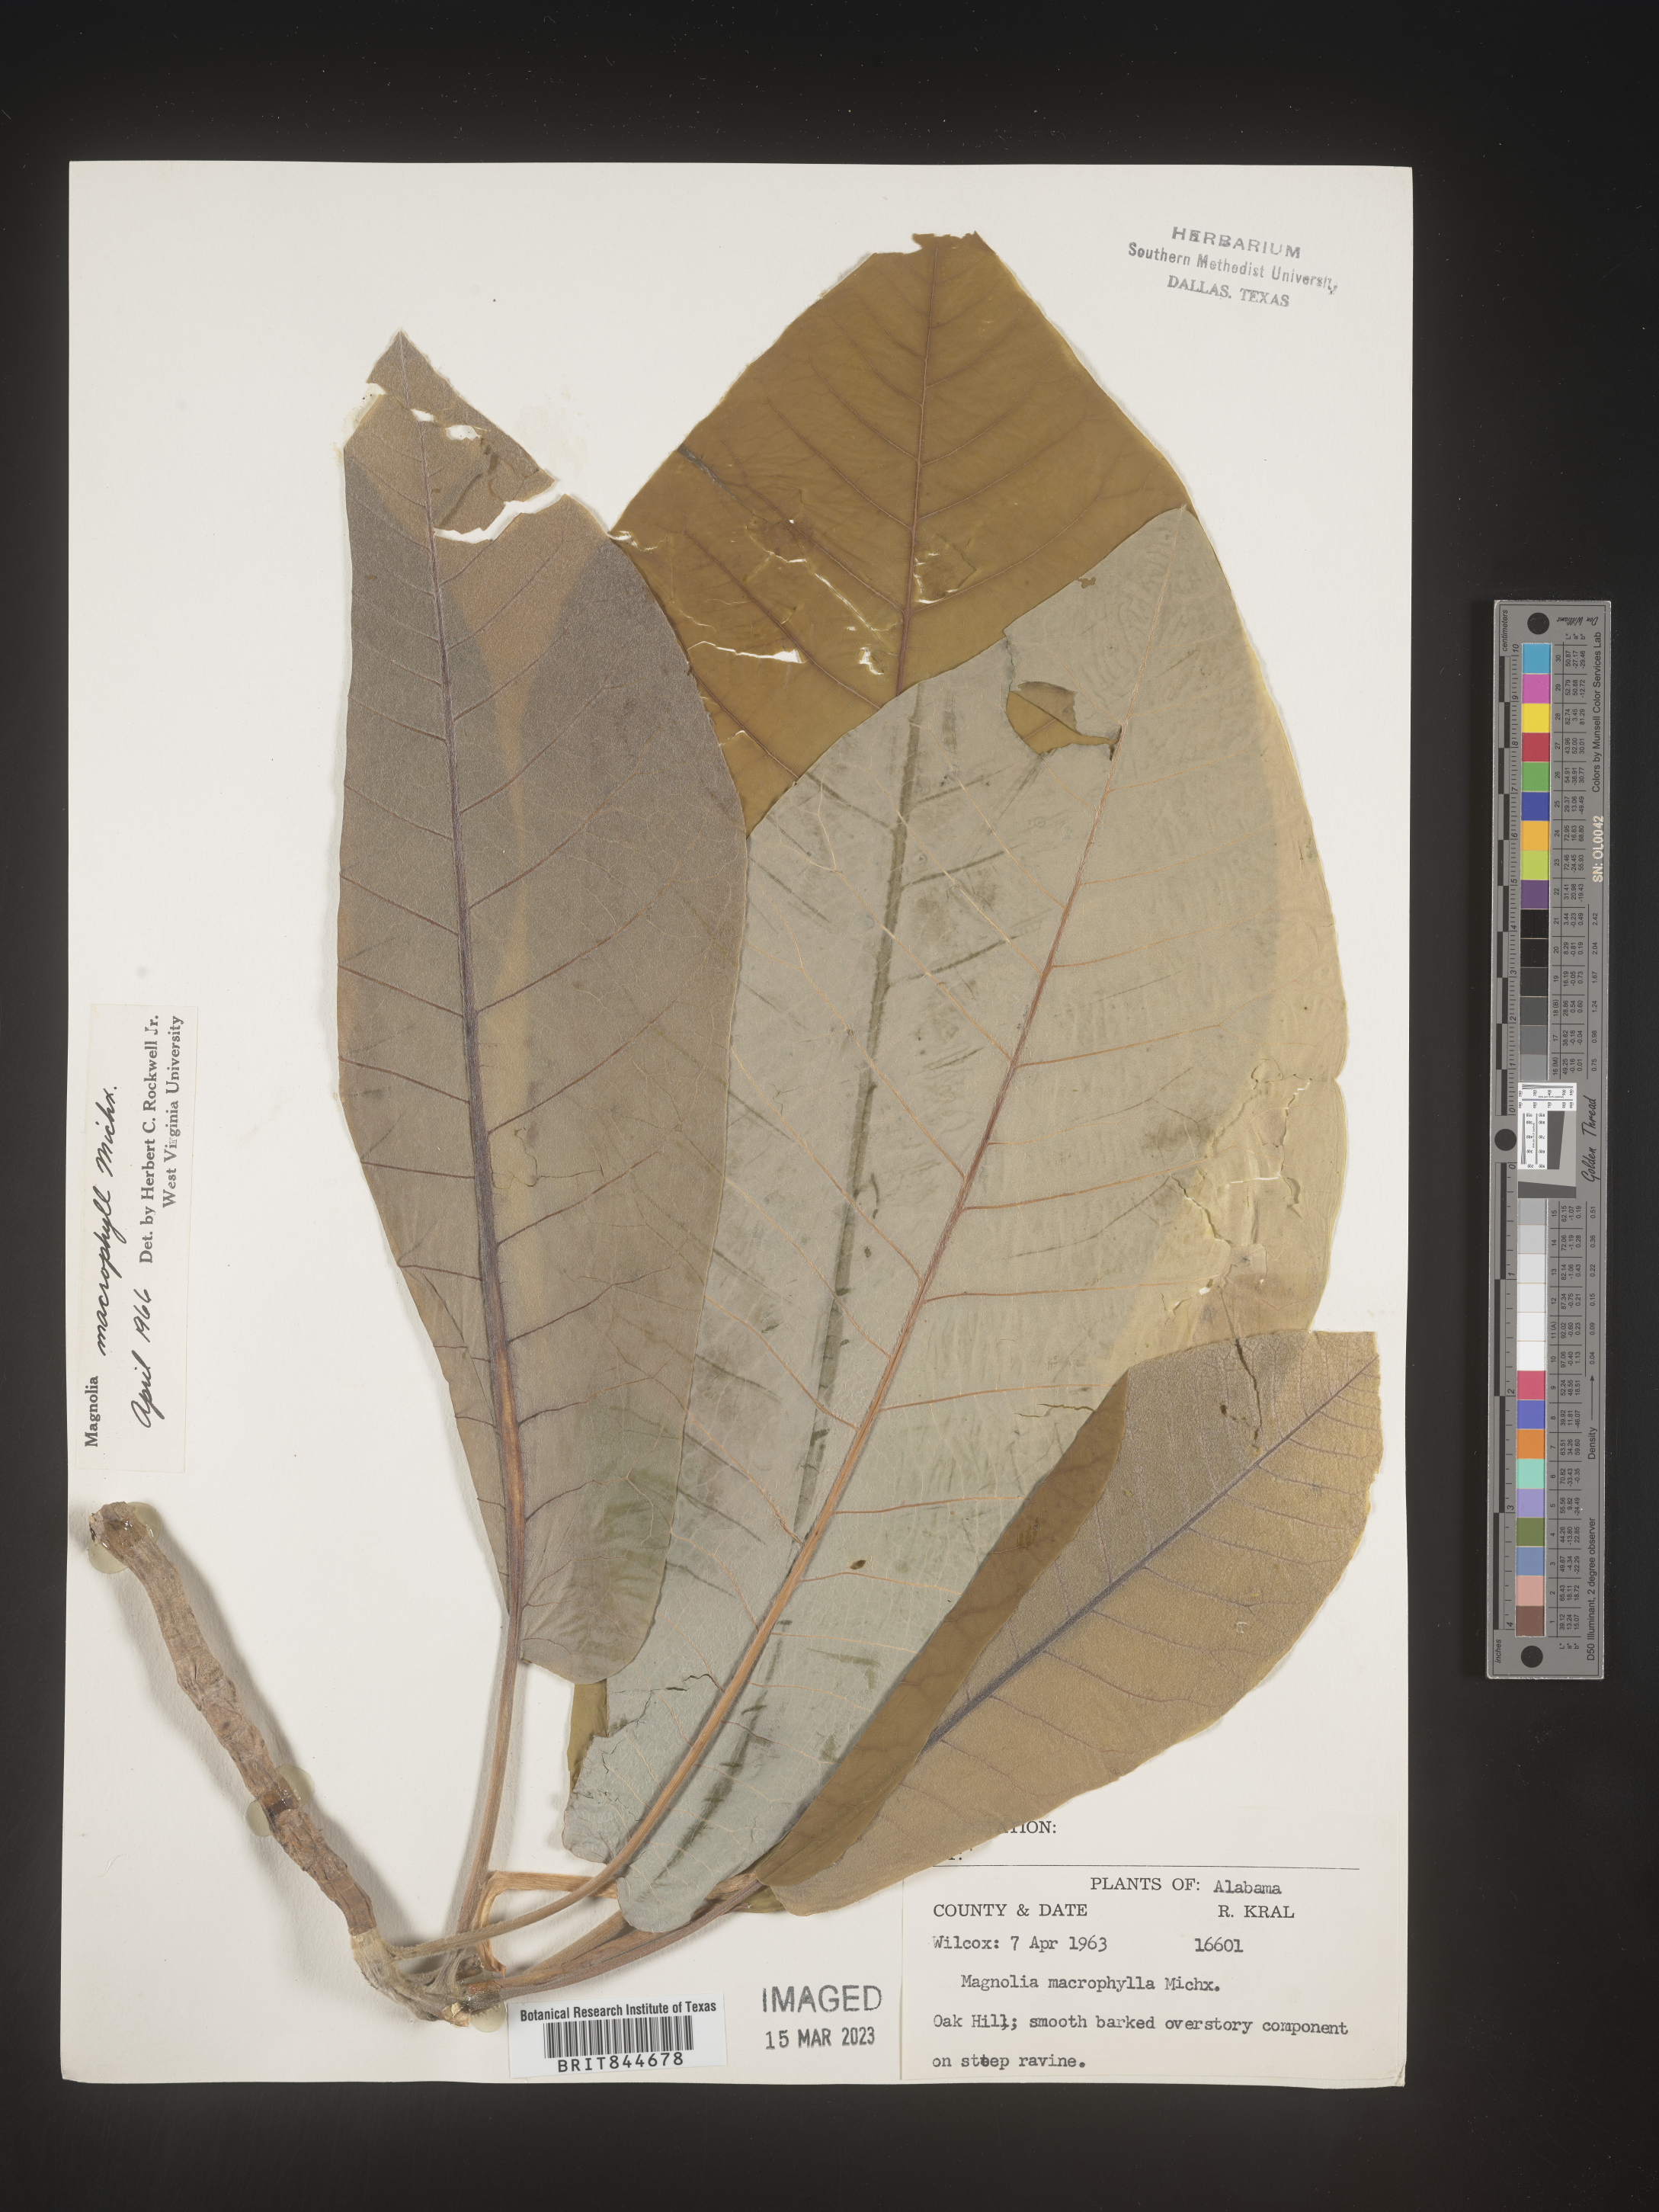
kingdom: Plantae
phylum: Tracheophyta
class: Magnoliopsida
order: Magnoliales
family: Magnoliaceae
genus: Magnolia
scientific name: Magnolia macrophylla
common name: Big-leaf magnolia
